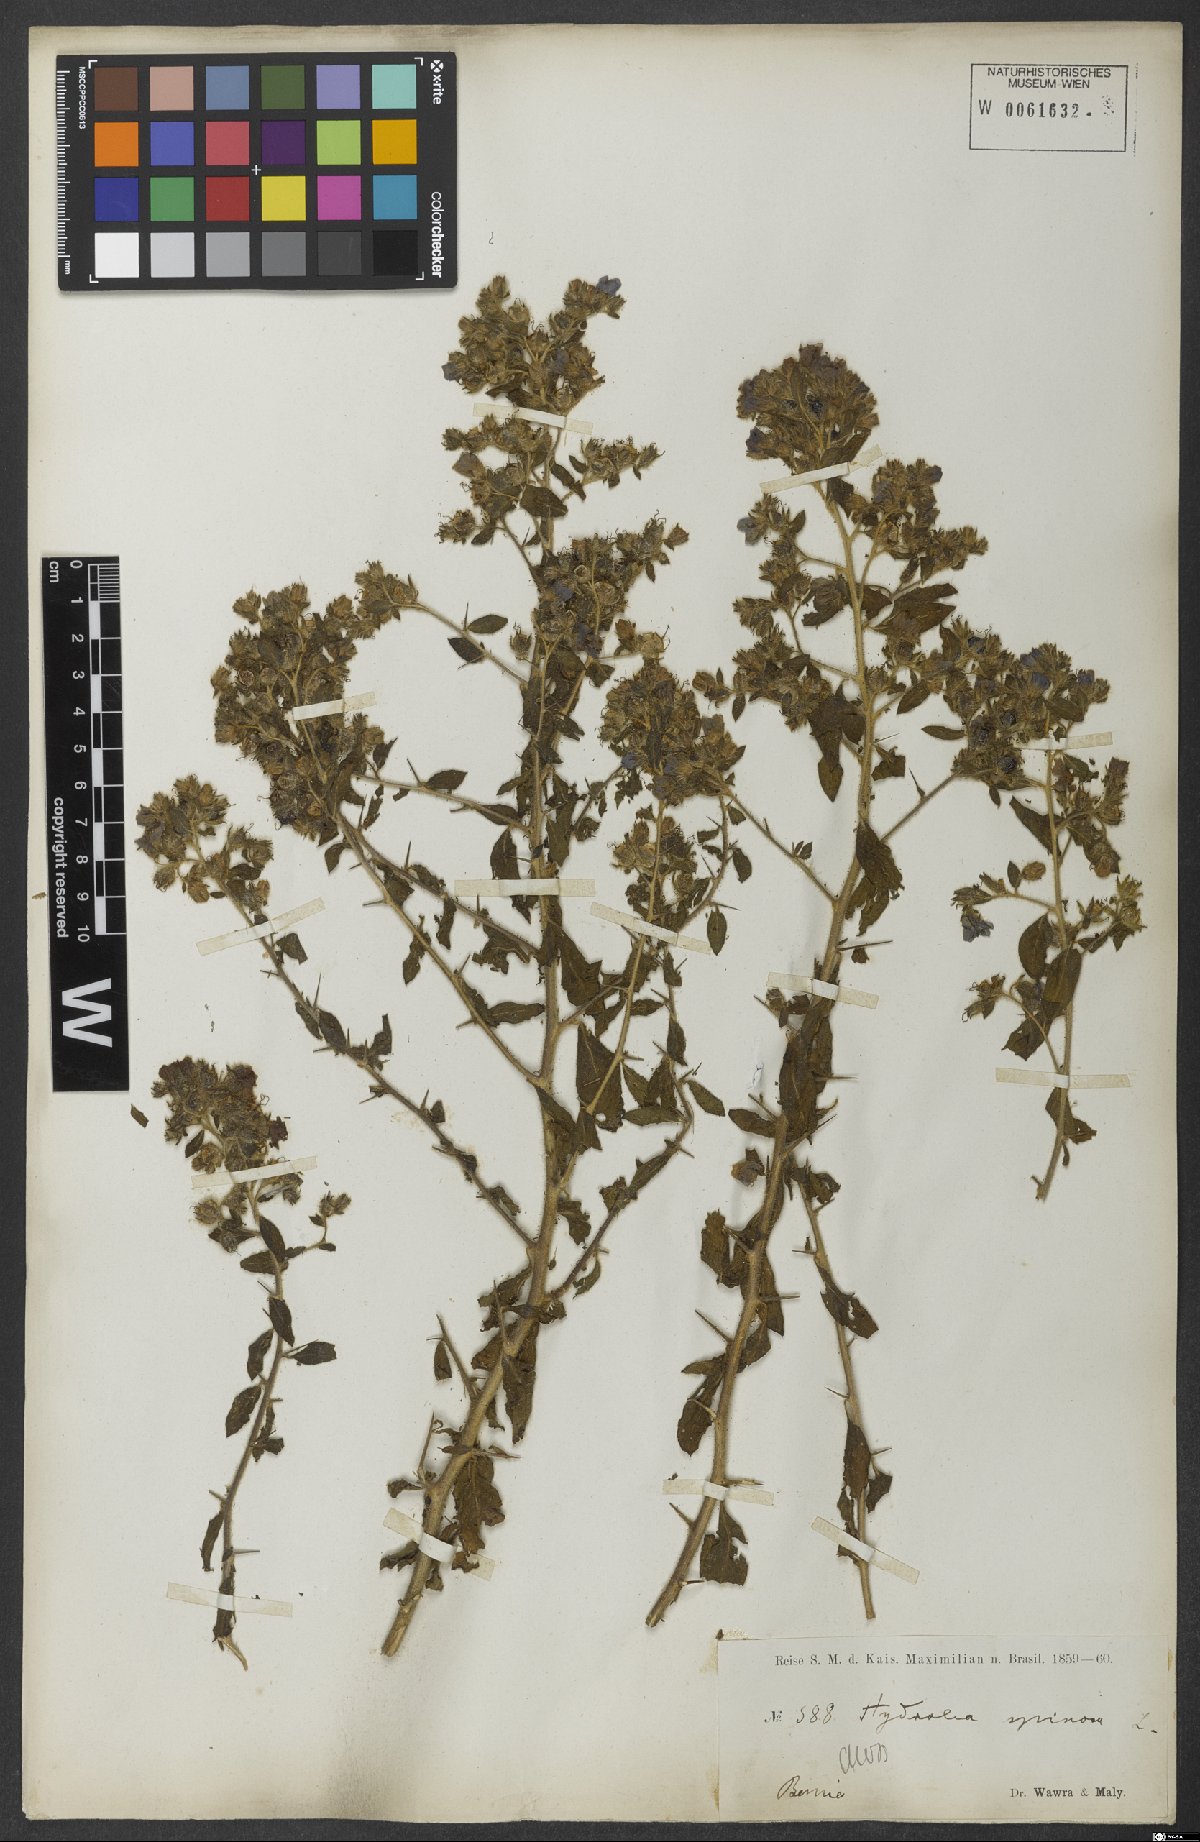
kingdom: Plantae
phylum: Tracheophyta
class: Magnoliopsida
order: Solanales
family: Hydroleaceae
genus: Hydrolea
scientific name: Hydrolea spinosa
